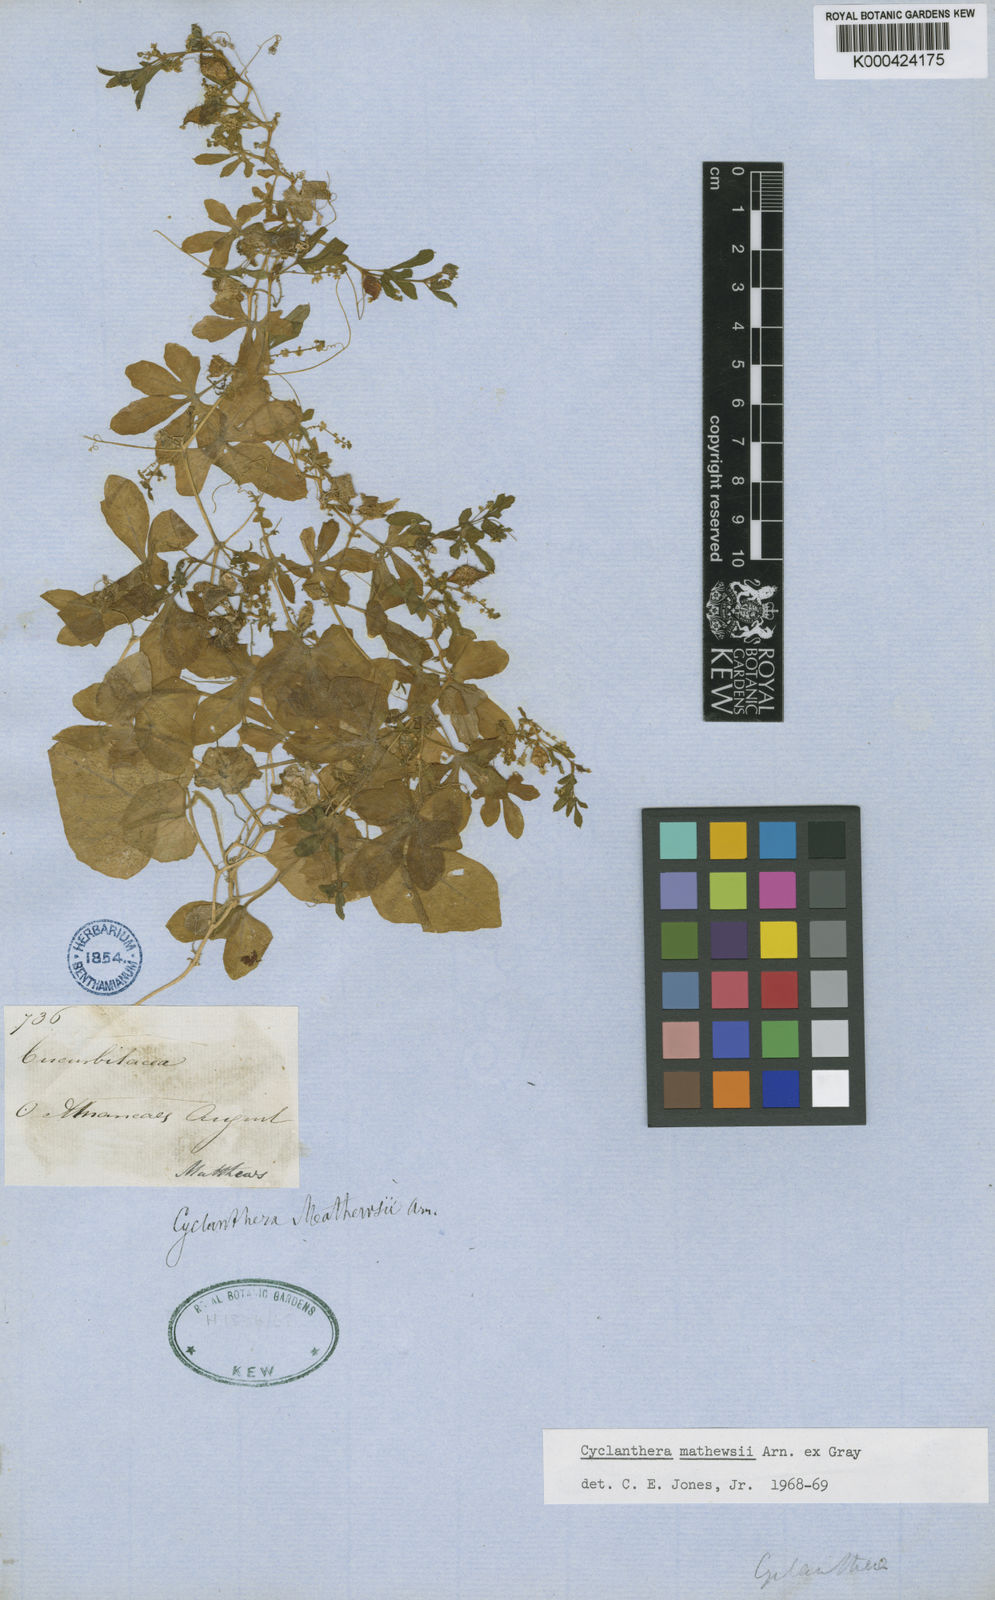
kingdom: Plantae
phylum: Tracheophyta
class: Magnoliopsida
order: Cucurbitales
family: Cucurbitaceae
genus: Cyclanthera
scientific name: Cyclanthera
